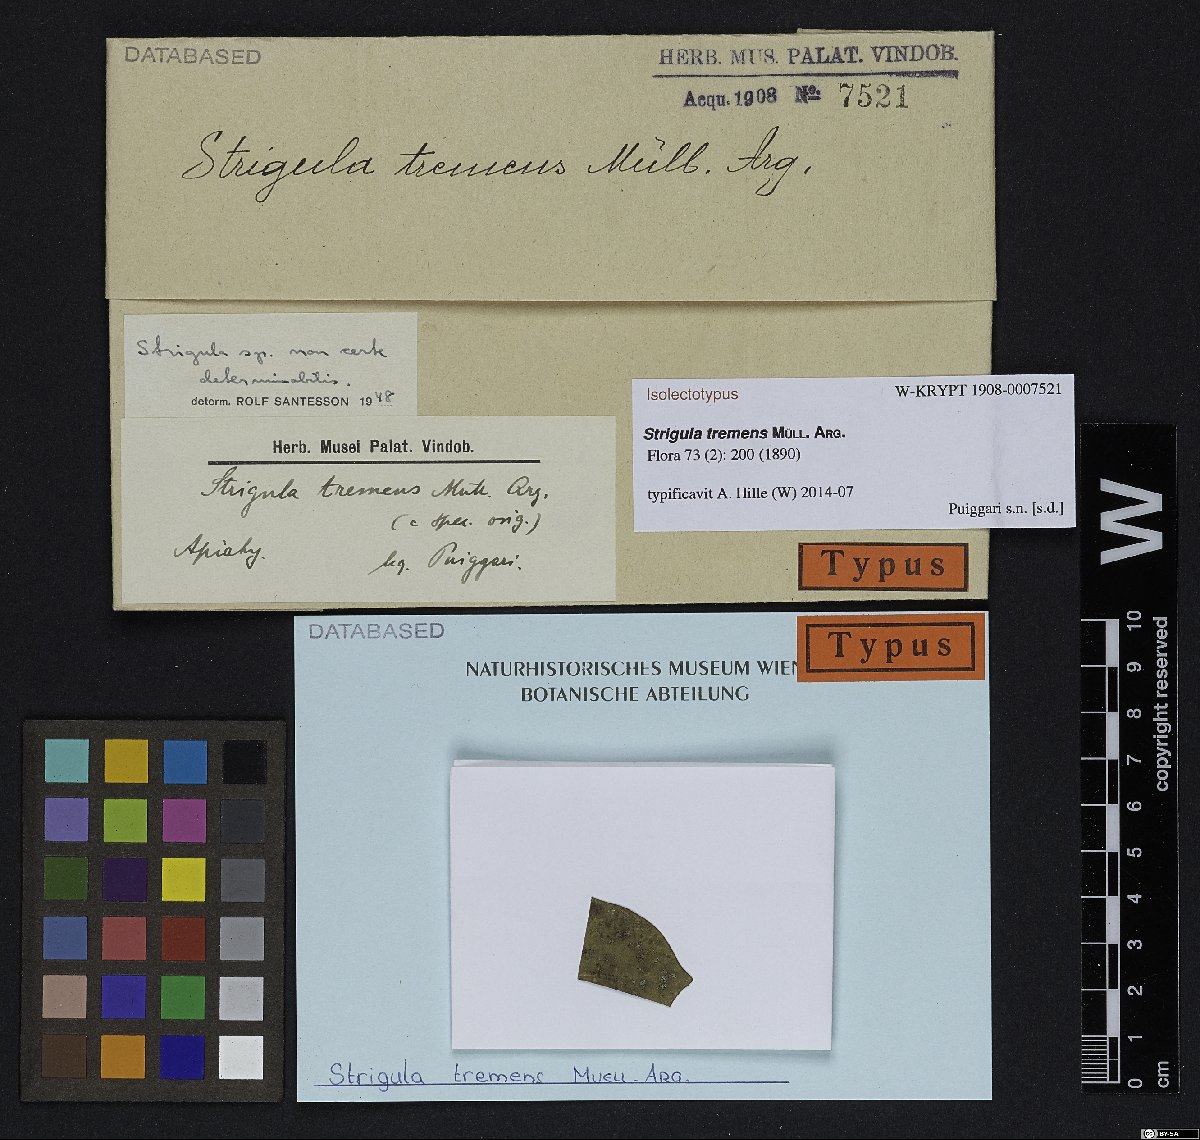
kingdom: Fungi
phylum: Ascomycota
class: Dothideomycetes
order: Strigulales
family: Strigulaceae
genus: Racoplaca
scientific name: Racoplaca tremens
